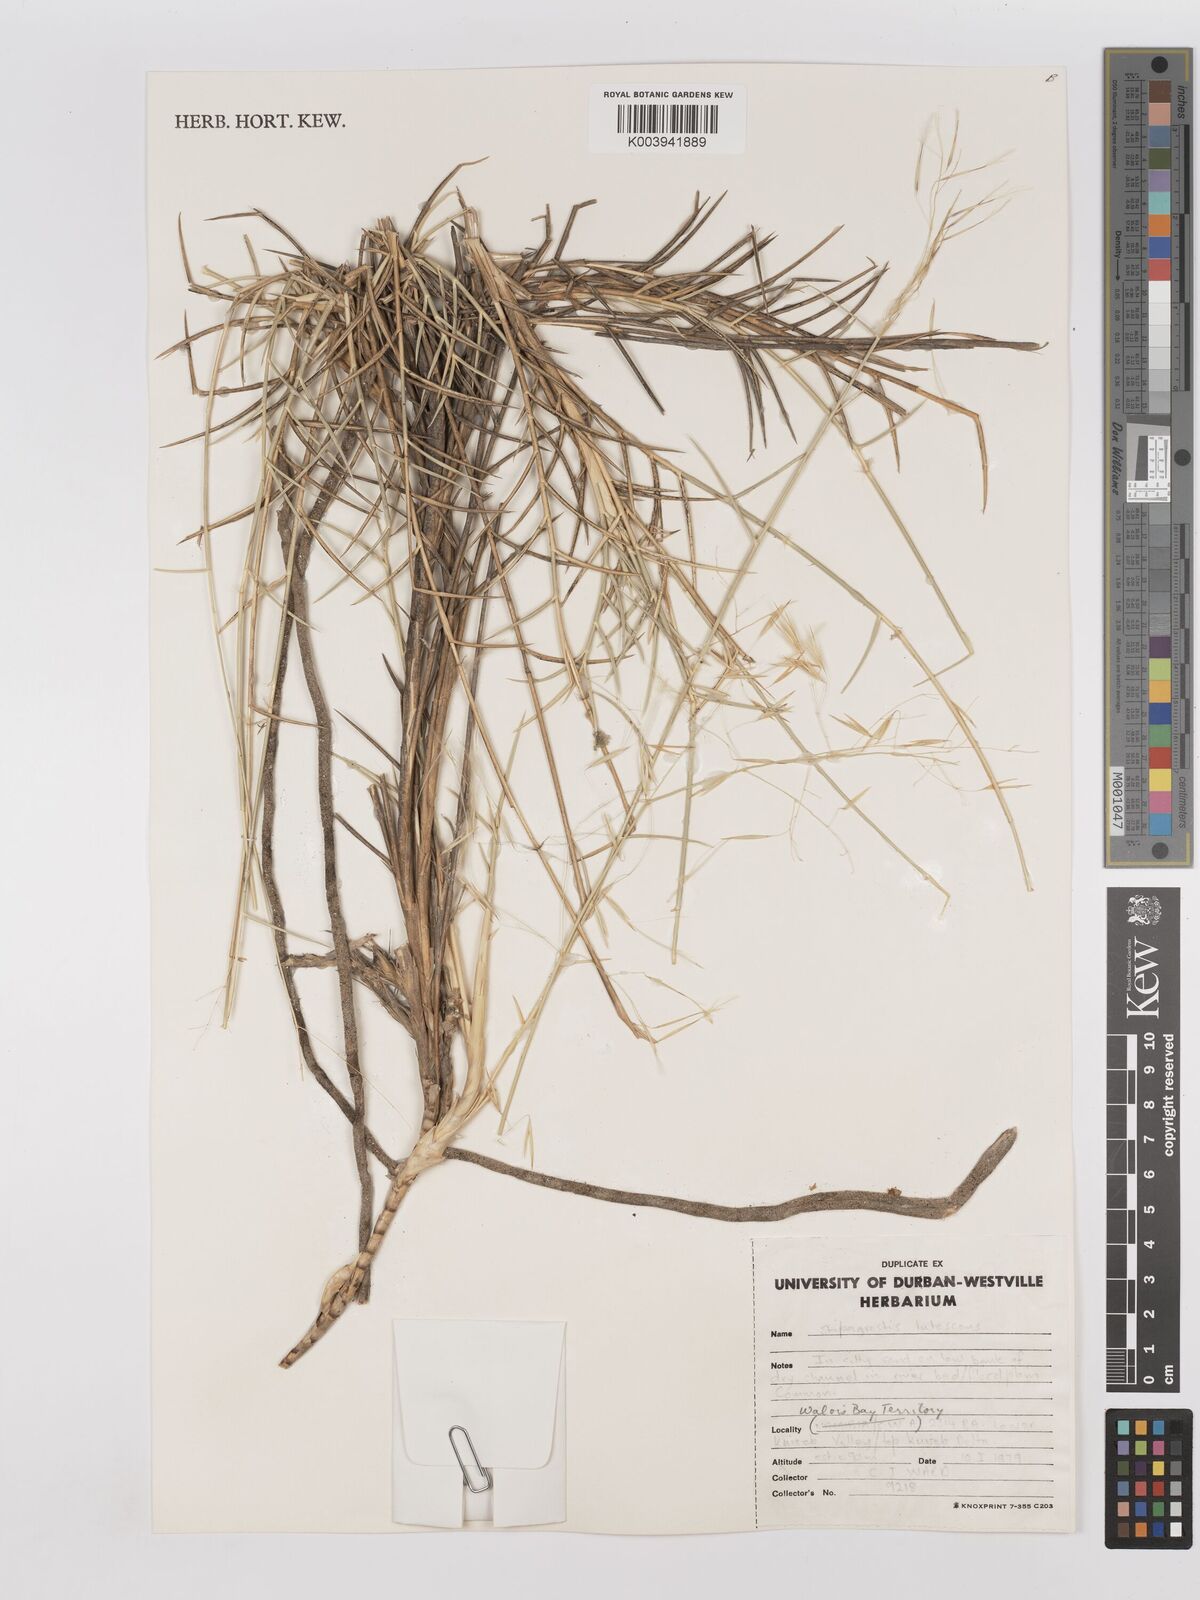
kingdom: Plantae
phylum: Tracheophyta
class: Liliopsida
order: Poales
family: Poaceae
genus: Stipagrostis
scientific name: Stipagrostis lutescens
